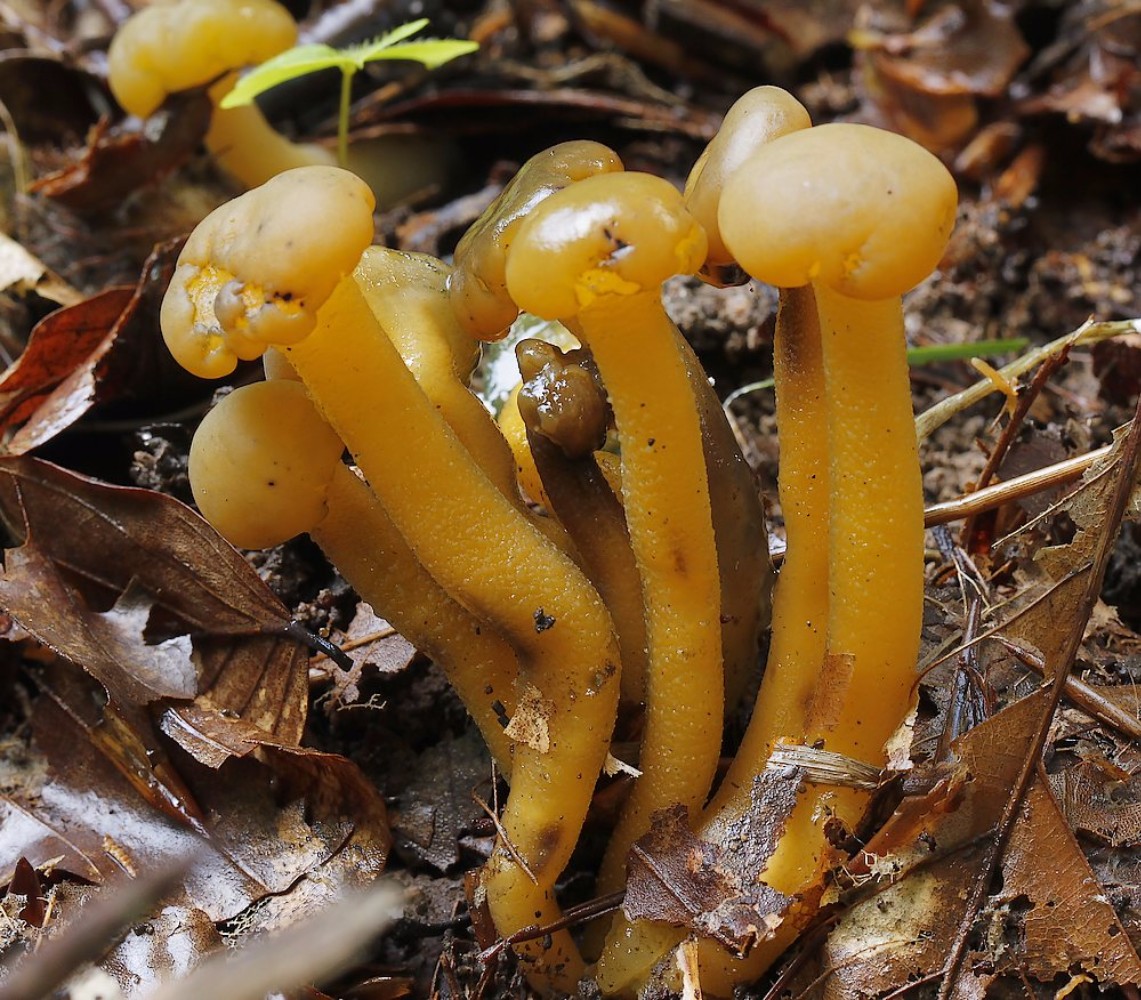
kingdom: Fungi
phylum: Ascomycota
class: Leotiomycetes
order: Leotiales
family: Leotiaceae
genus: Leotia
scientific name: Leotia lubrica
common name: ravsvamp
